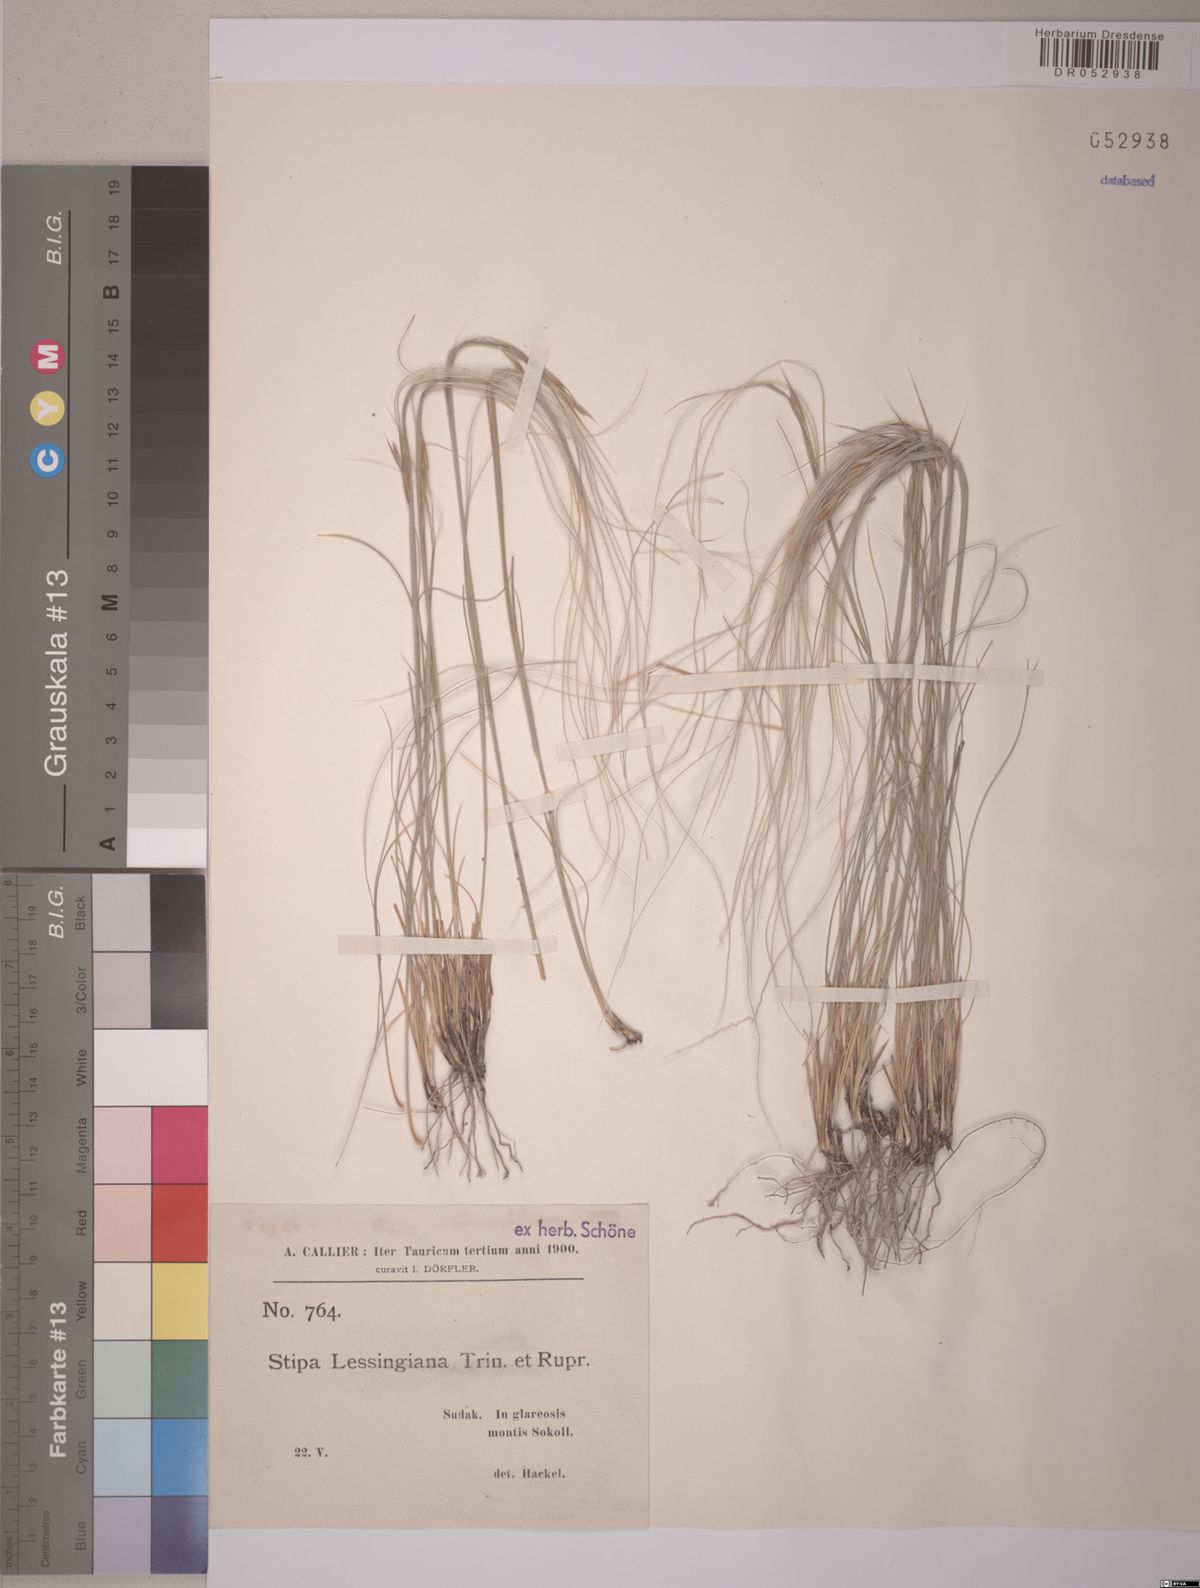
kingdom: Plantae
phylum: Tracheophyta
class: Liliopsida
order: Poales
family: Poaceae
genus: Stipa
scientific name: Stipa lessingiana
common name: Needle grass
